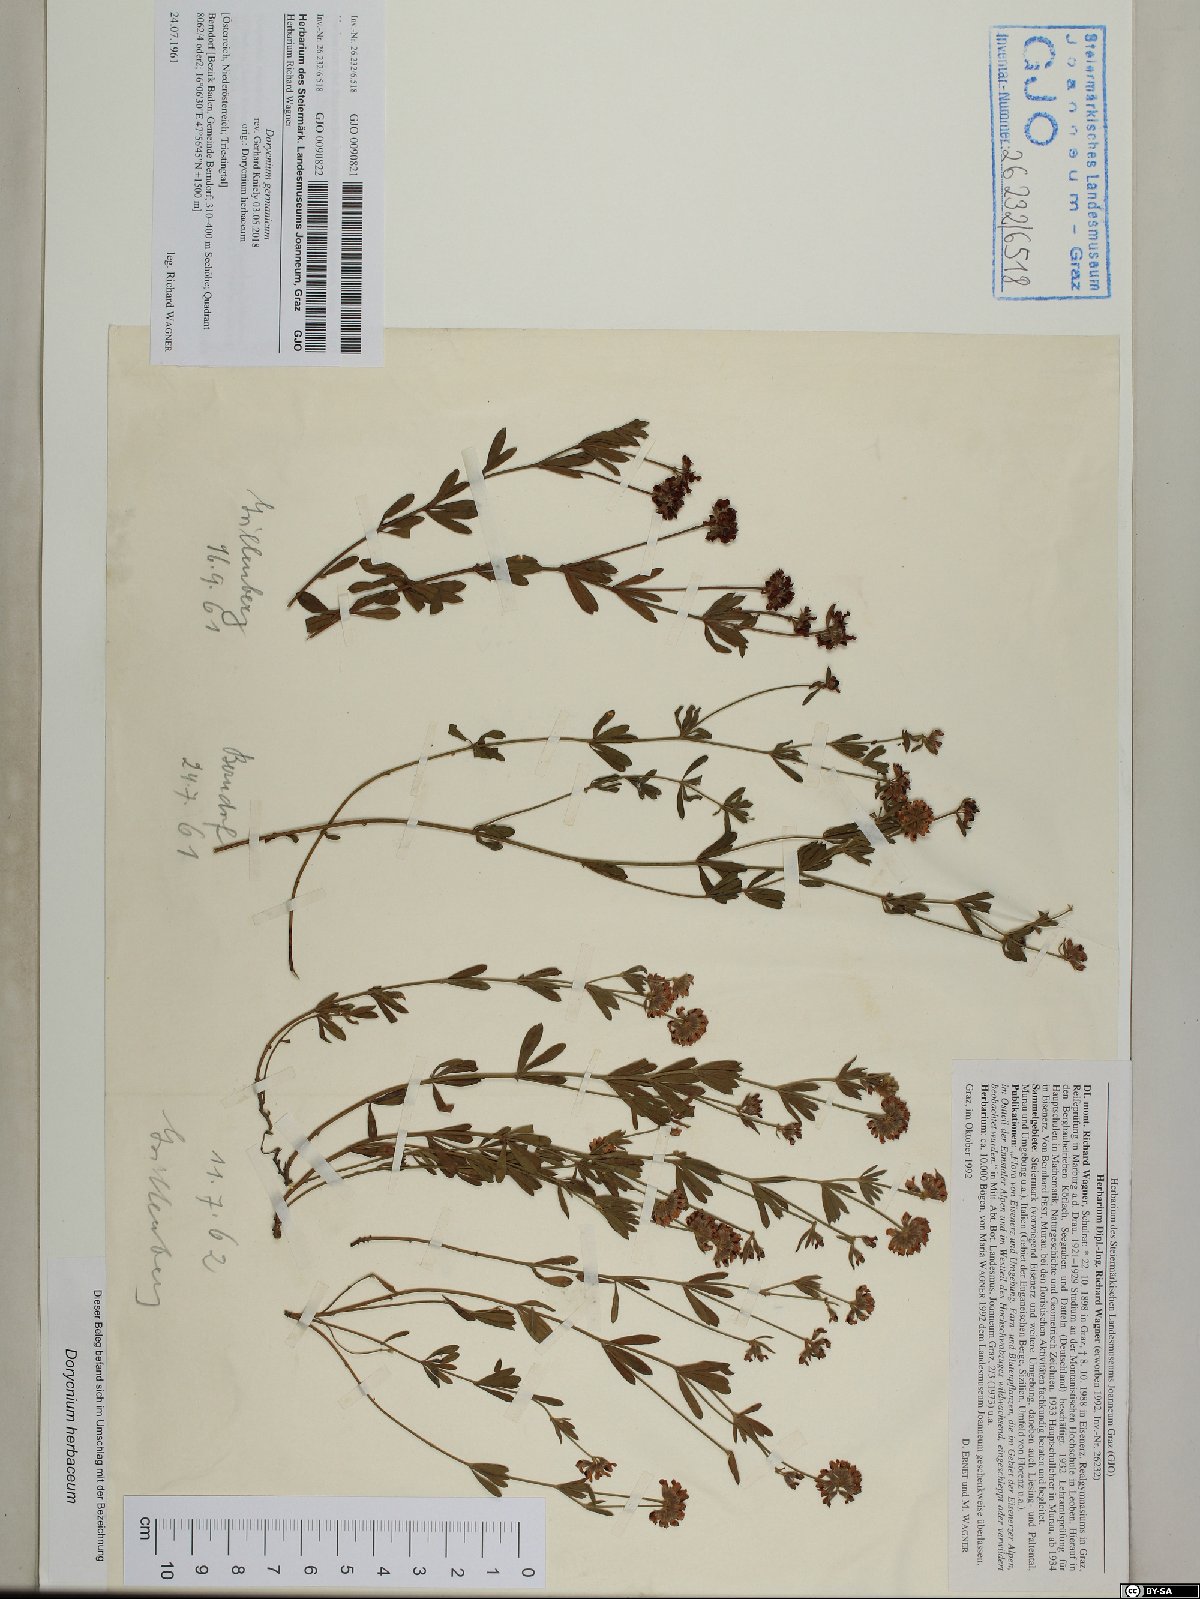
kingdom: Plantae
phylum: Tracheophyta
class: Magnoliopsida
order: Fabales
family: Fabaceae
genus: Lotus
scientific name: Lotus germanicus
